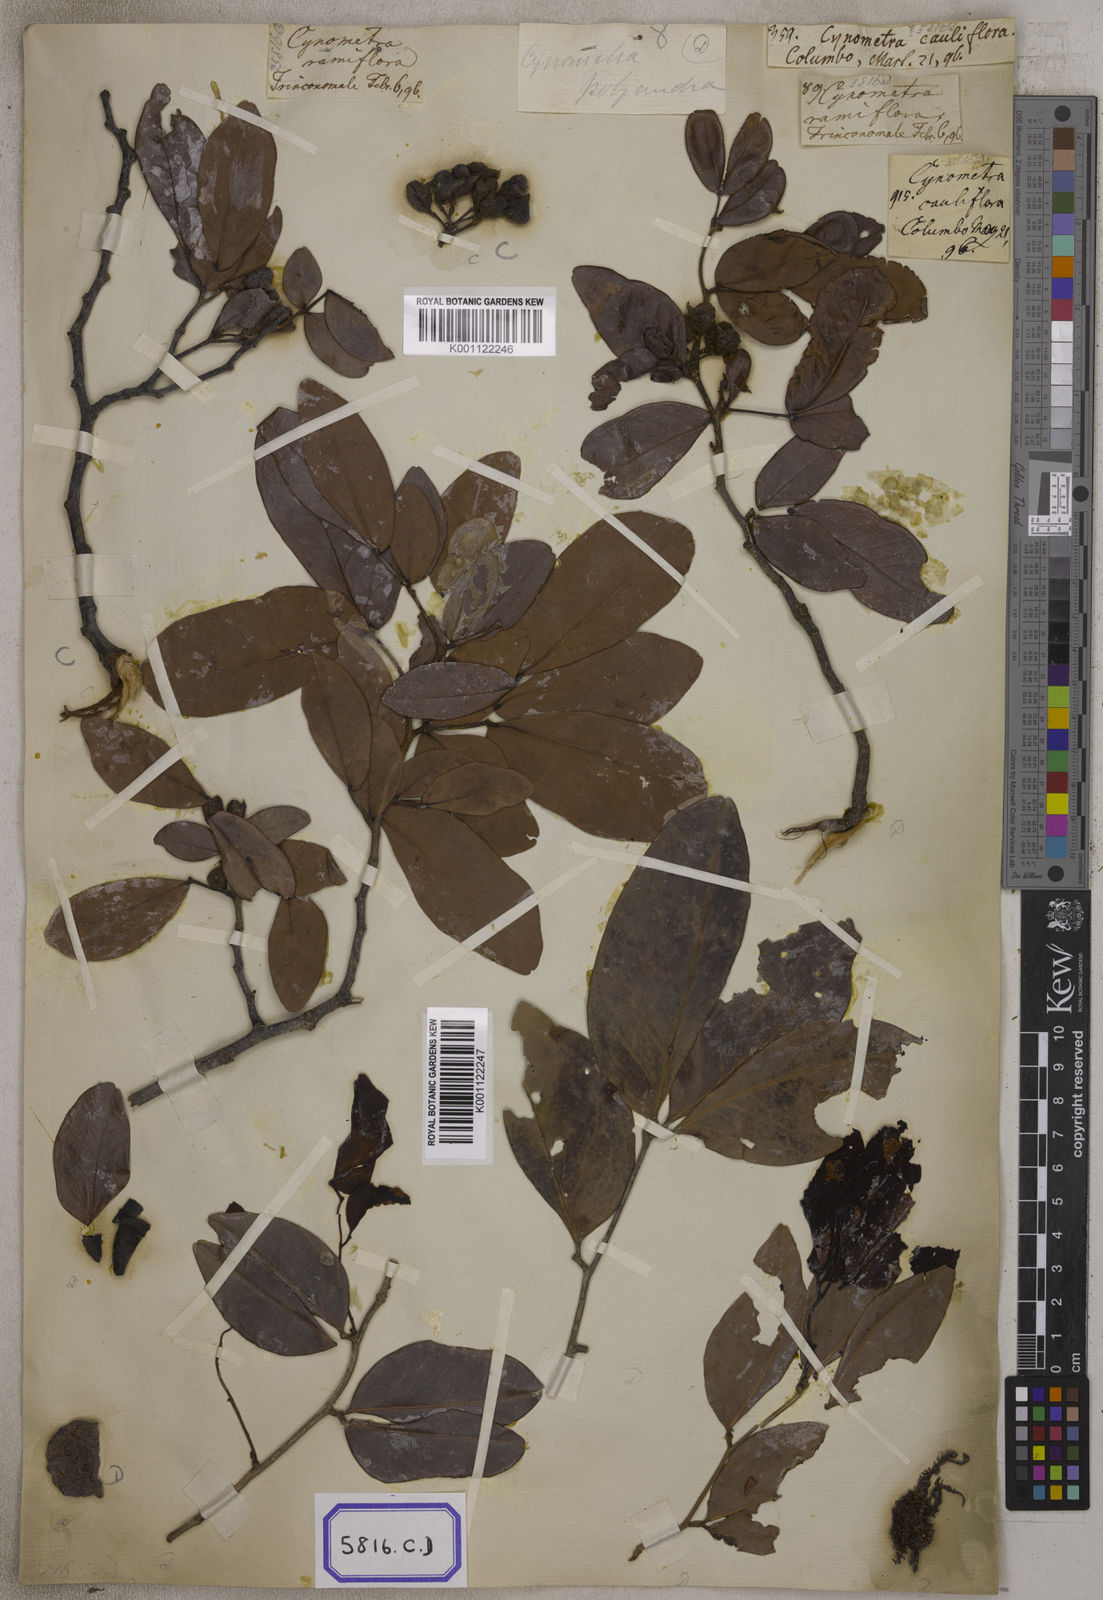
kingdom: Plantae
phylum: Tracheophyta
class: Magnoliopsida
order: Fabales
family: Fabaceae
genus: Cynometra
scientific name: Cynometra cauliflora
